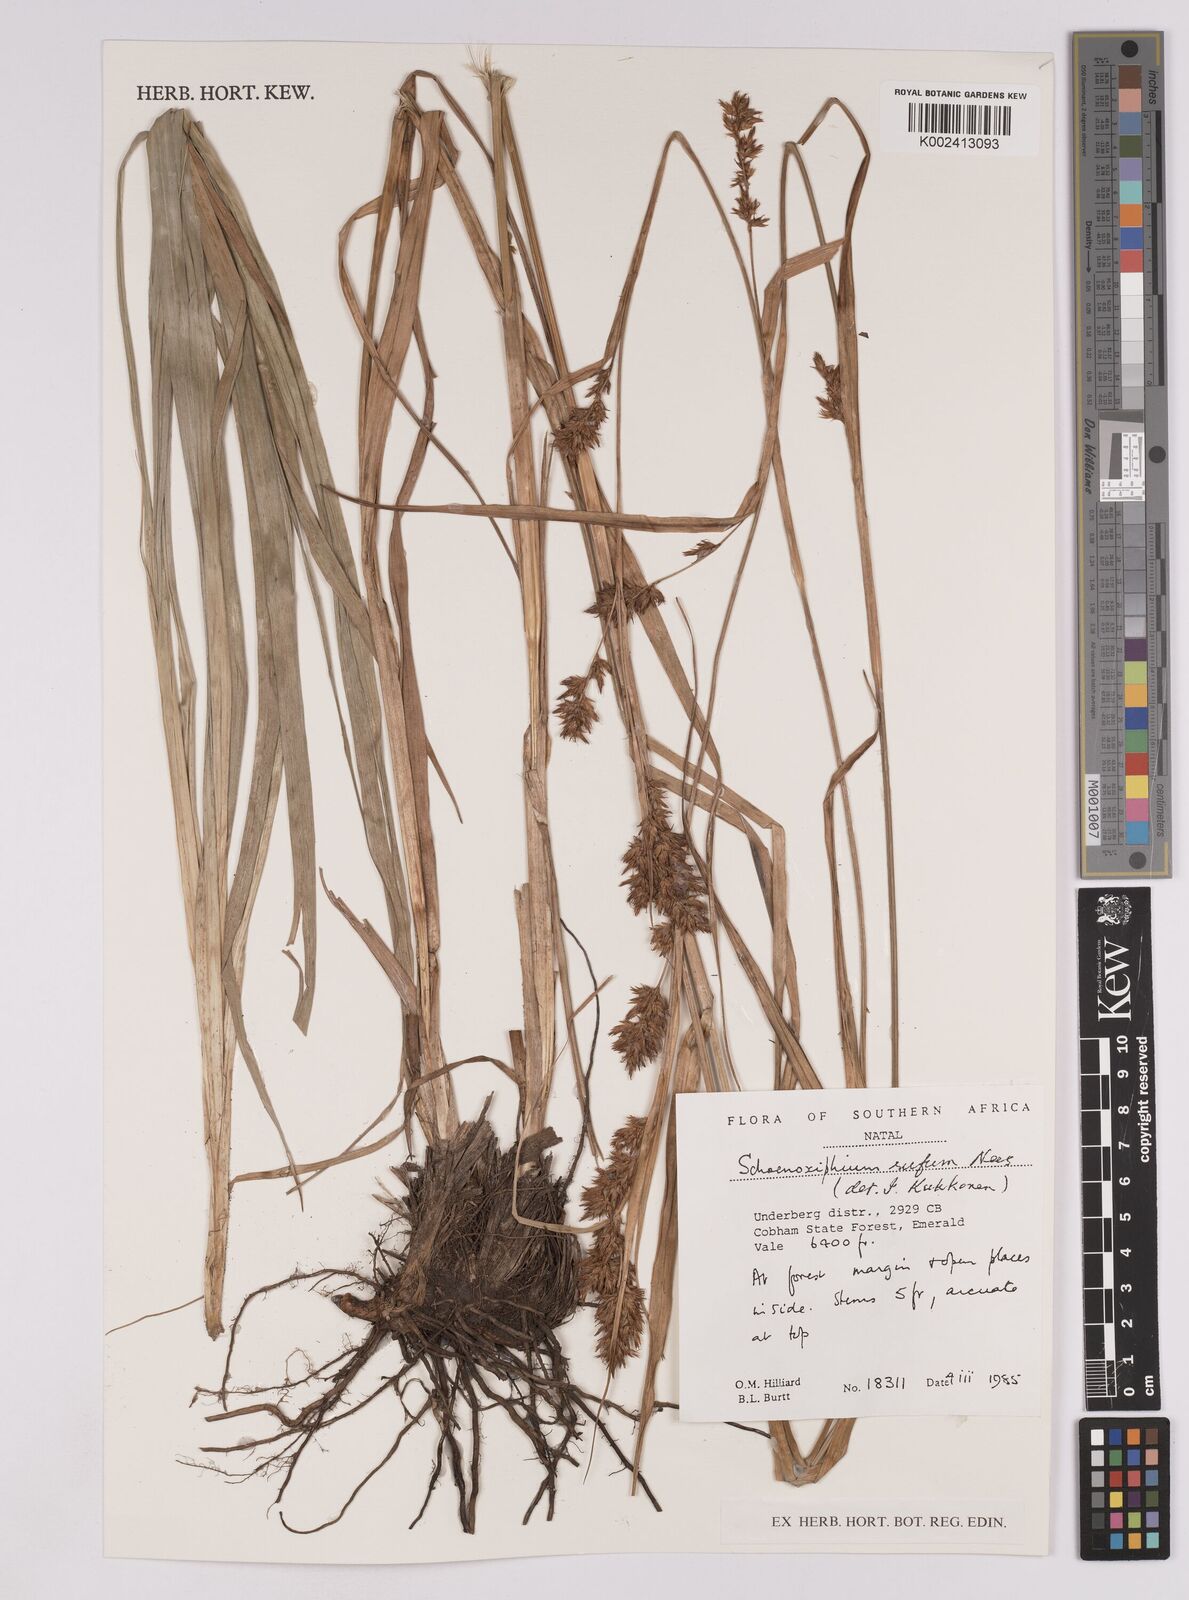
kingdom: Plantae
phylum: Tracheophyta
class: Liliopsida
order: Poales
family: Cyperaceae
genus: Carex
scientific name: Carex ludwigii
